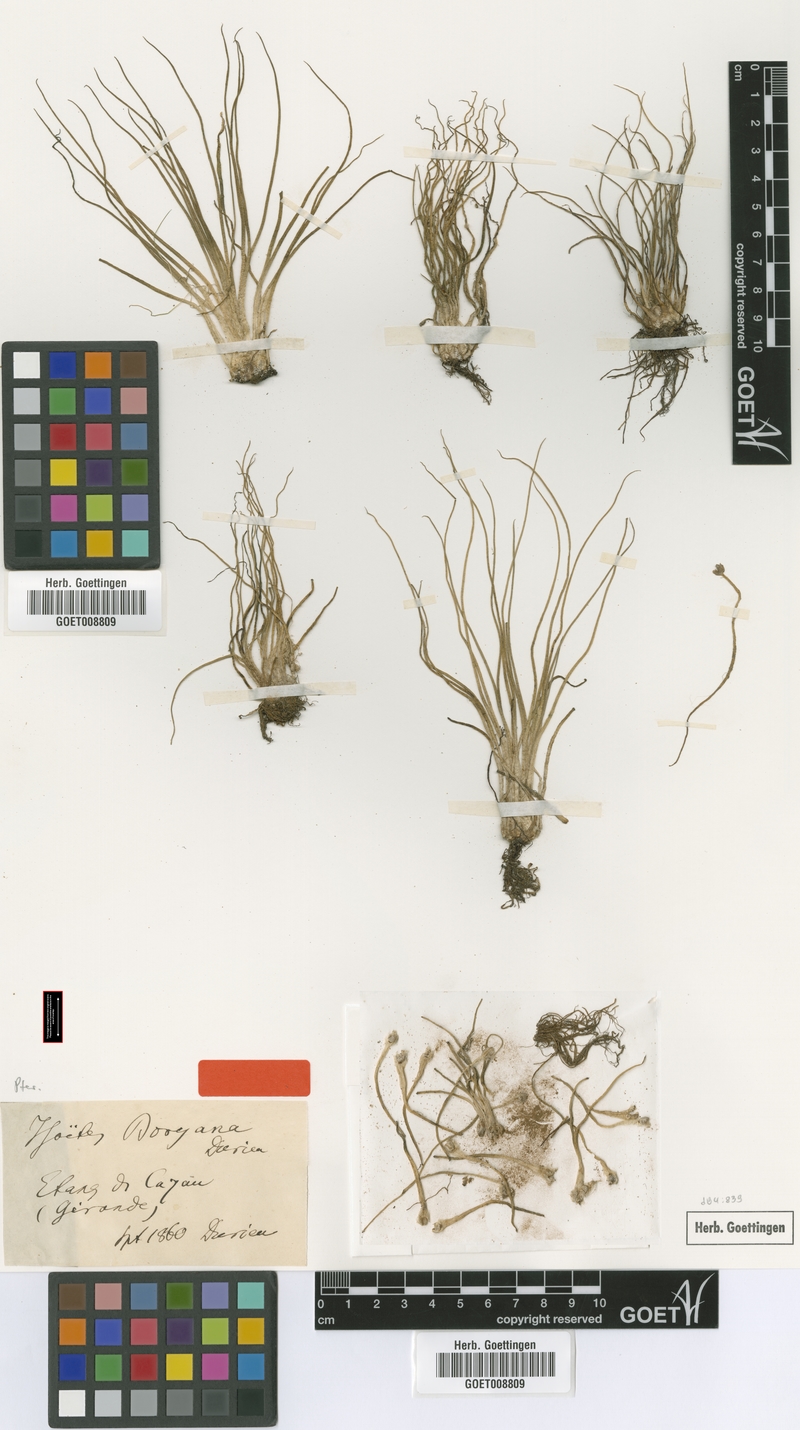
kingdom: Plantae
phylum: Tracheophyta
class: Lycopodiopsida
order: Isoetales
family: Isoetaceae
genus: Isoetes
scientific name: Isoetes boryana
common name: Gascoyne quillwort
